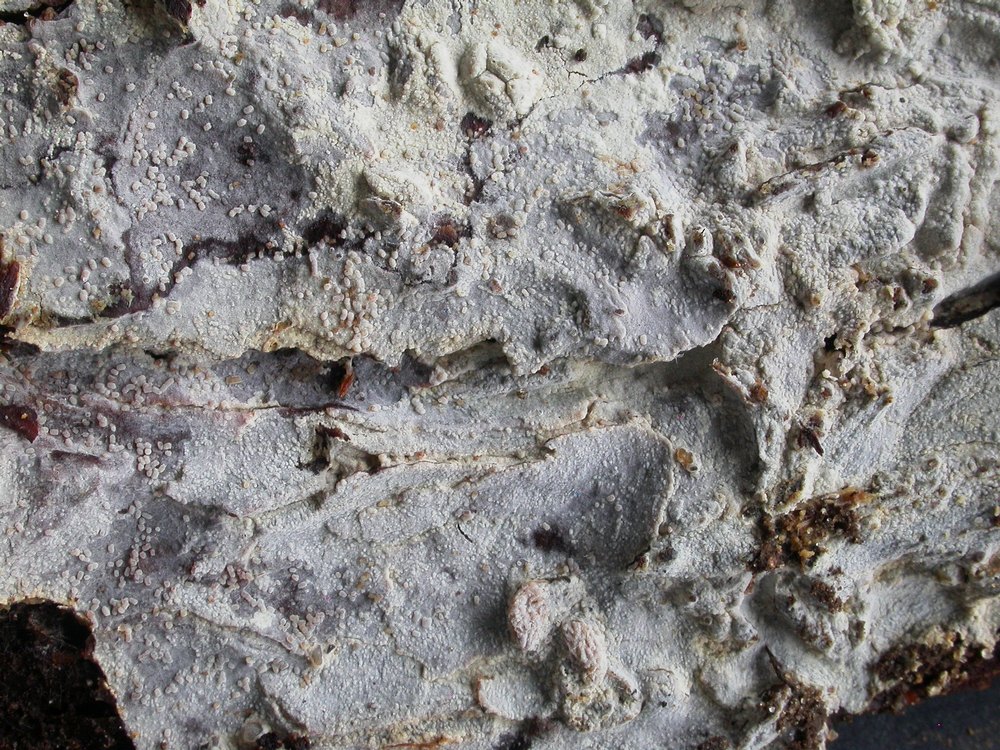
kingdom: Fungi
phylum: Basidiomycota
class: Agaricomycetes
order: Hymenochaetales
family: Hyphodontiaceae
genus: Hyphodontia
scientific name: Hyphodontia alutaria
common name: flaskerenser-nålehinde
